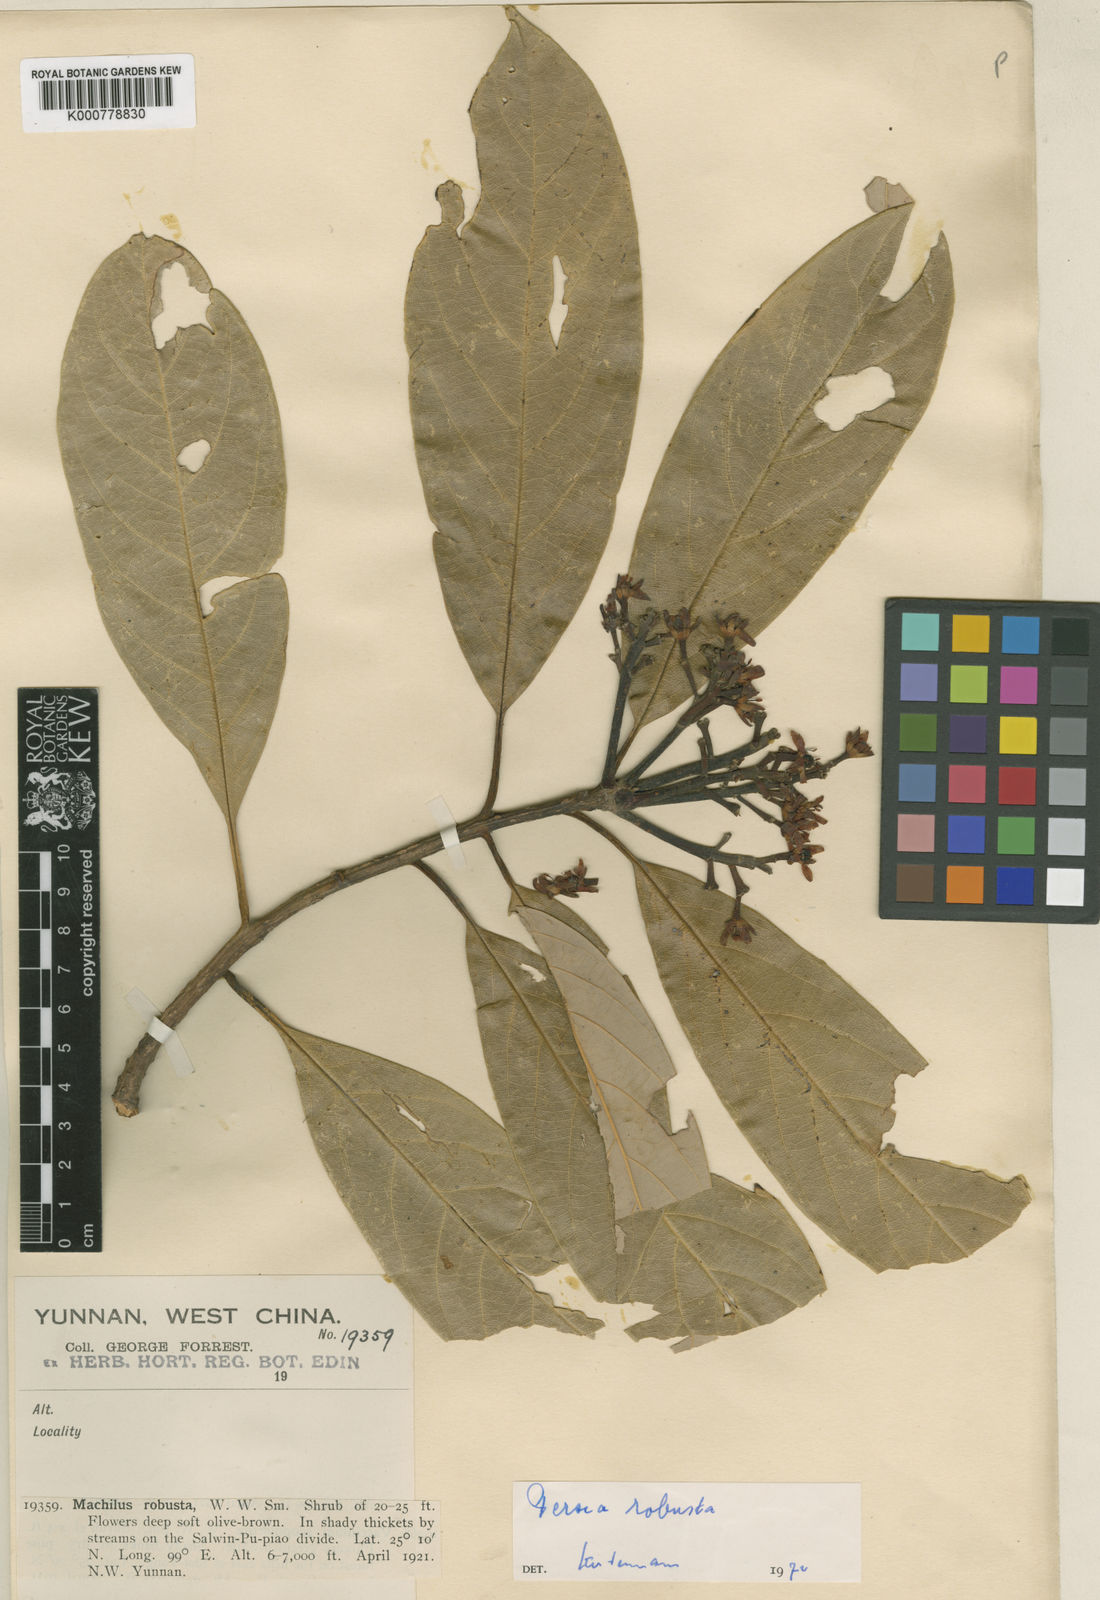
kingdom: Plantae
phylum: Tracheophyta
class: Magnoliopsida
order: Laurales
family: Lauraceae
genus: Machilus
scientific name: Machilus robustus
